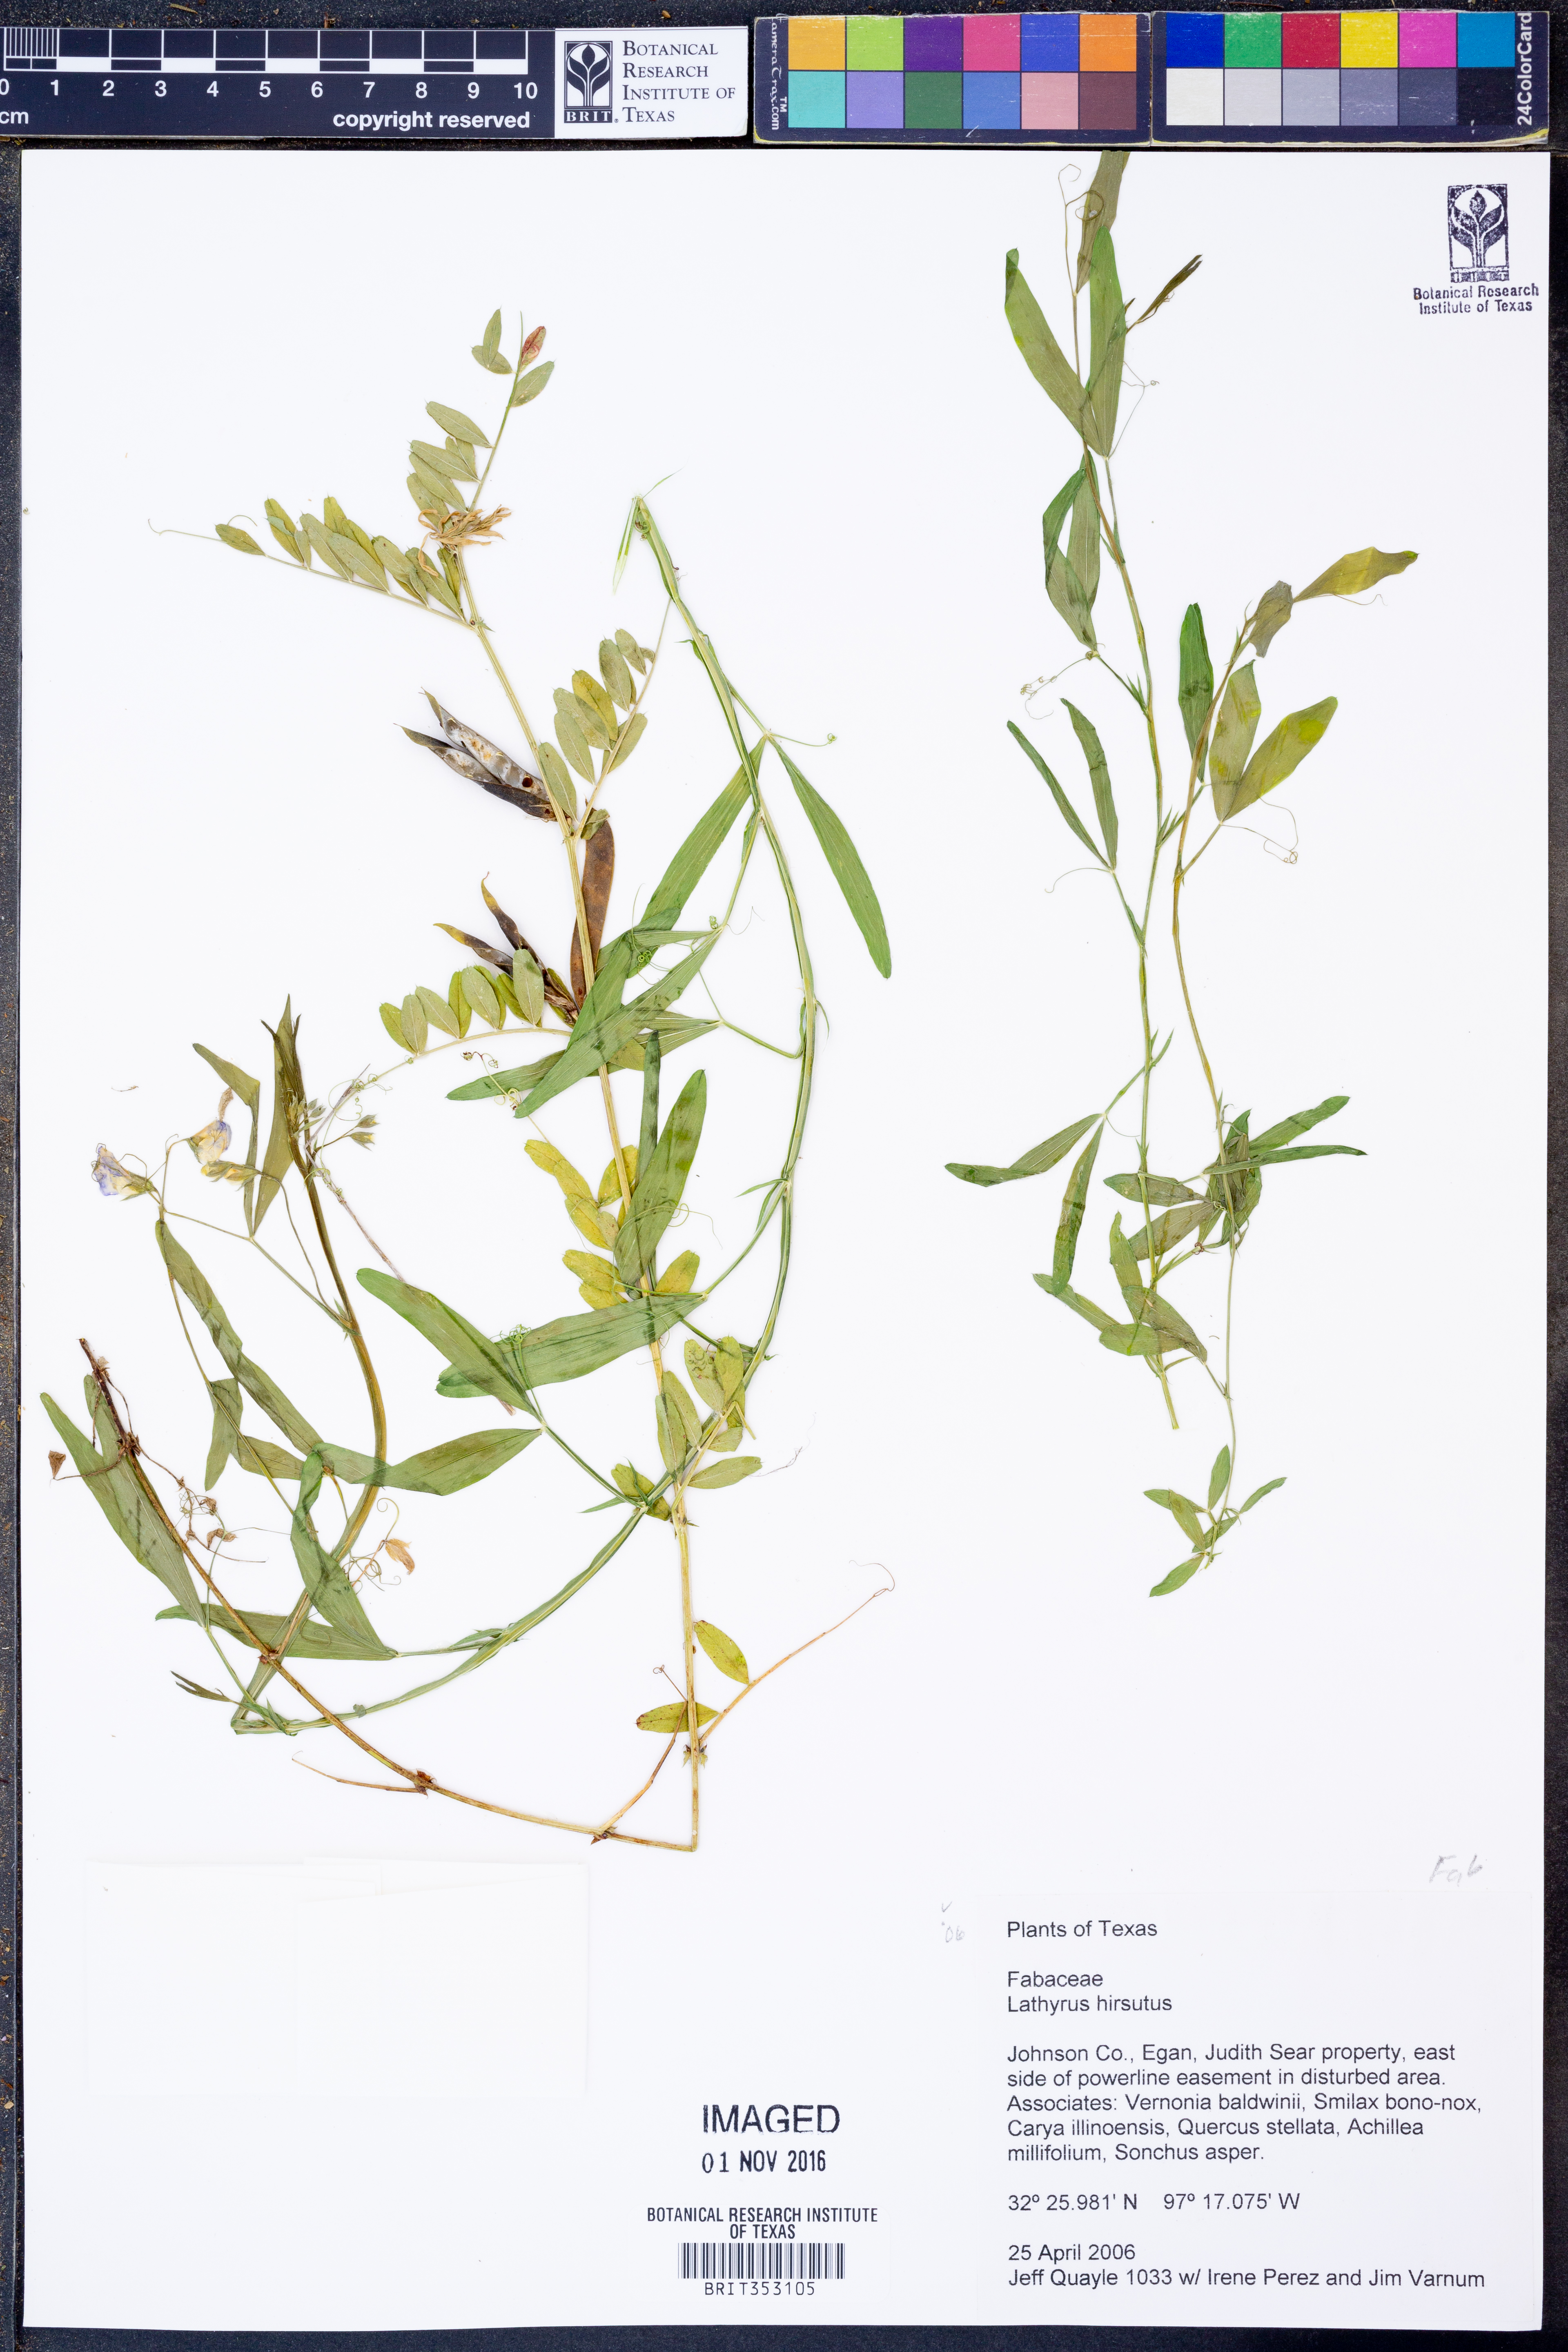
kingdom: Plantae
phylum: Tracheophyta
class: Magnoliopsida
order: Fabales
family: Fabaceae
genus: Lathyrus
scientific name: Lathyrus hirsutus
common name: Hairy vetchling
